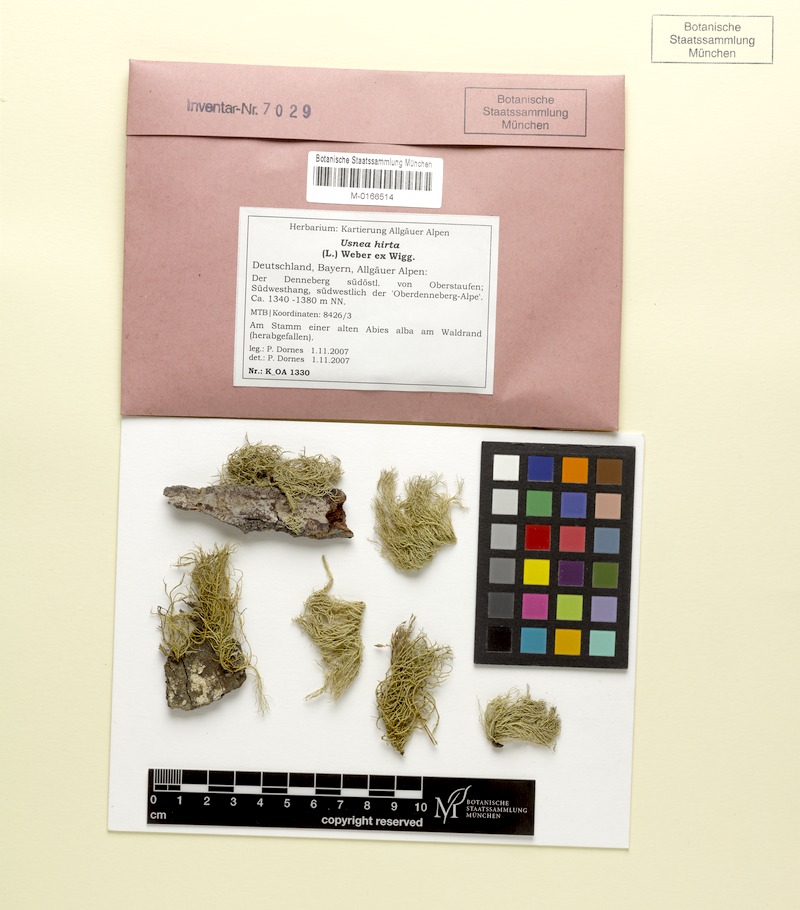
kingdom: Fungi
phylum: Ascomycota
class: Lecanoromycetes
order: Lecanorales
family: Parmeliaceae
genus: Usnea
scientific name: Usnea hirta
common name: Bristly beard lichen
